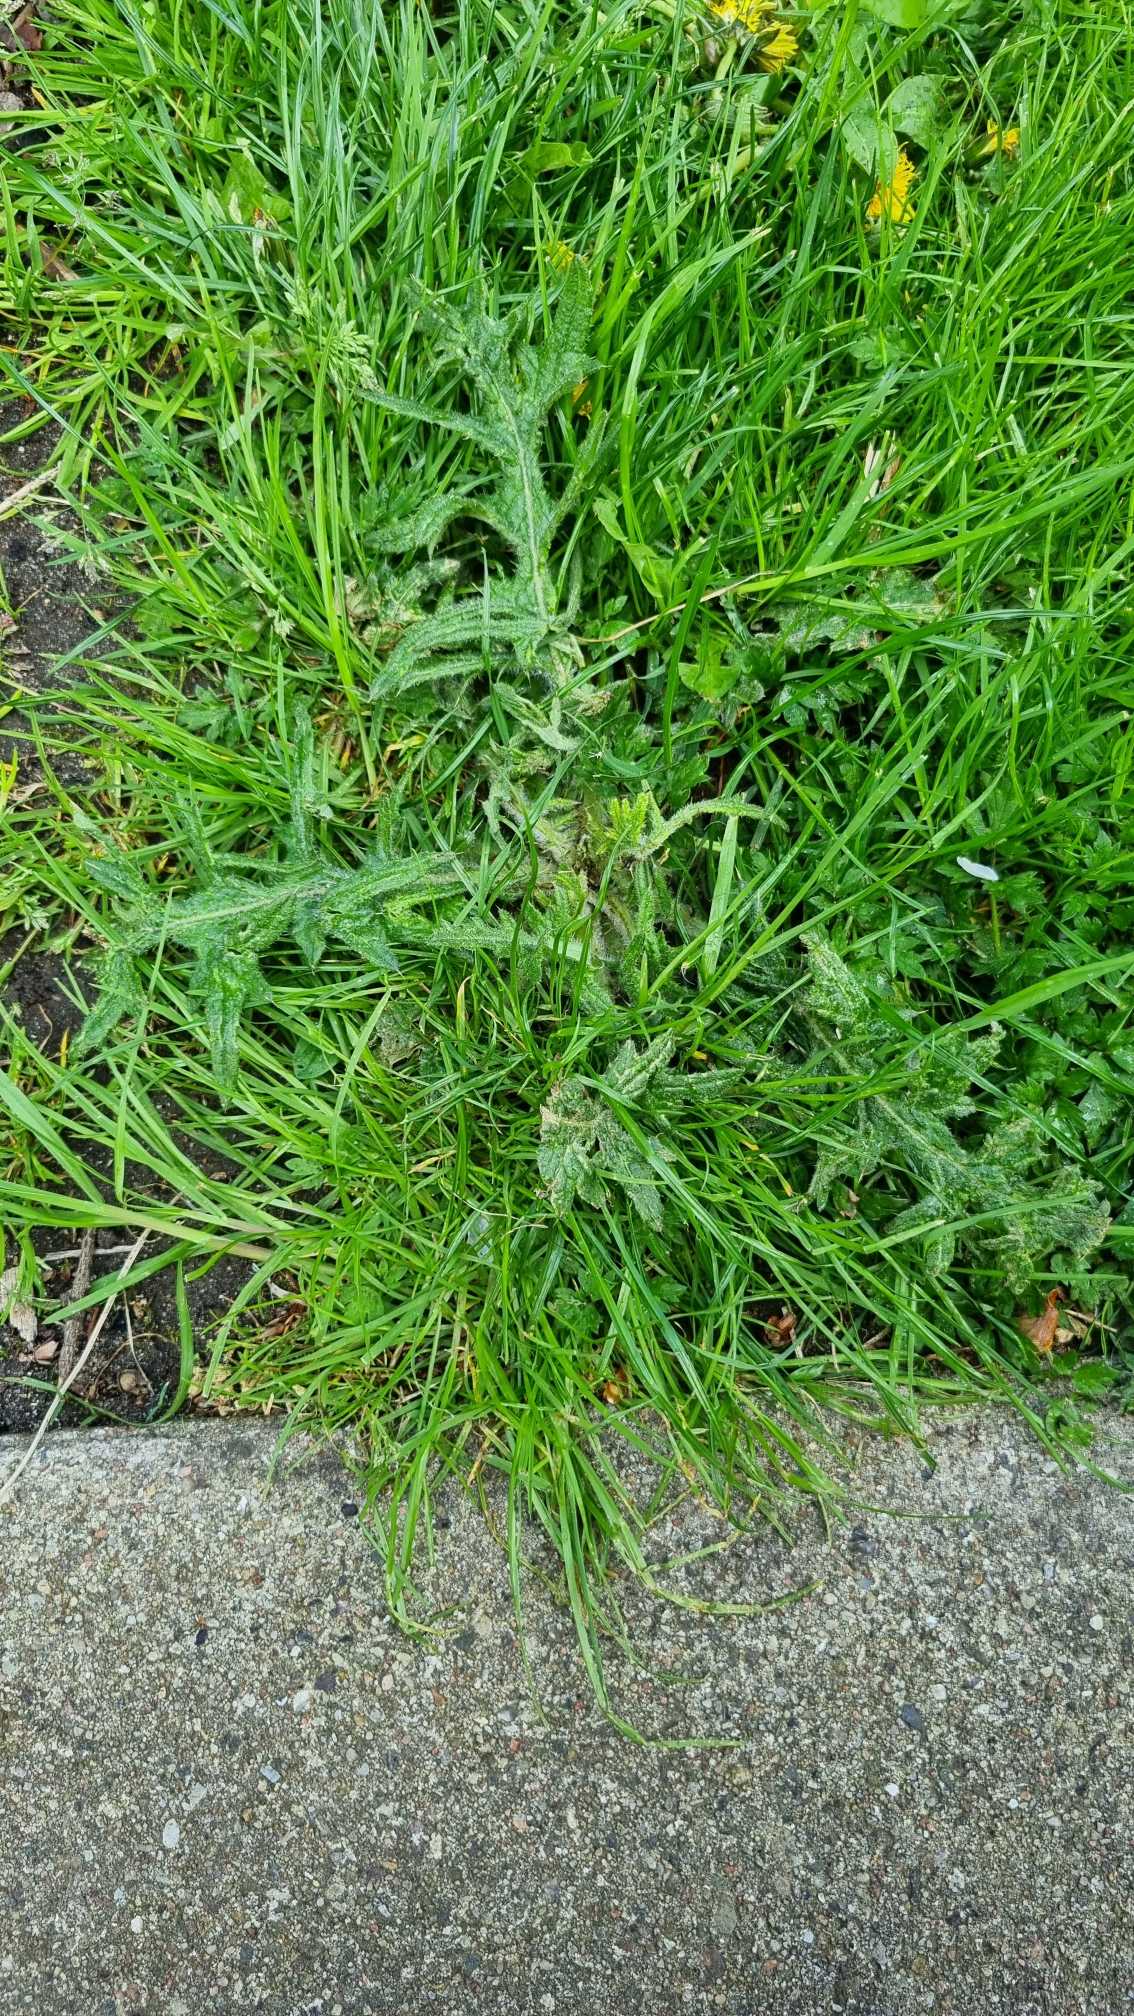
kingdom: Plantae
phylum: Tracheophyta
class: Magnoliopsida
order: Asterales
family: Asteraceae
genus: Cirsium
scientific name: Cirsium vulgare
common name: Horse-tidsel
